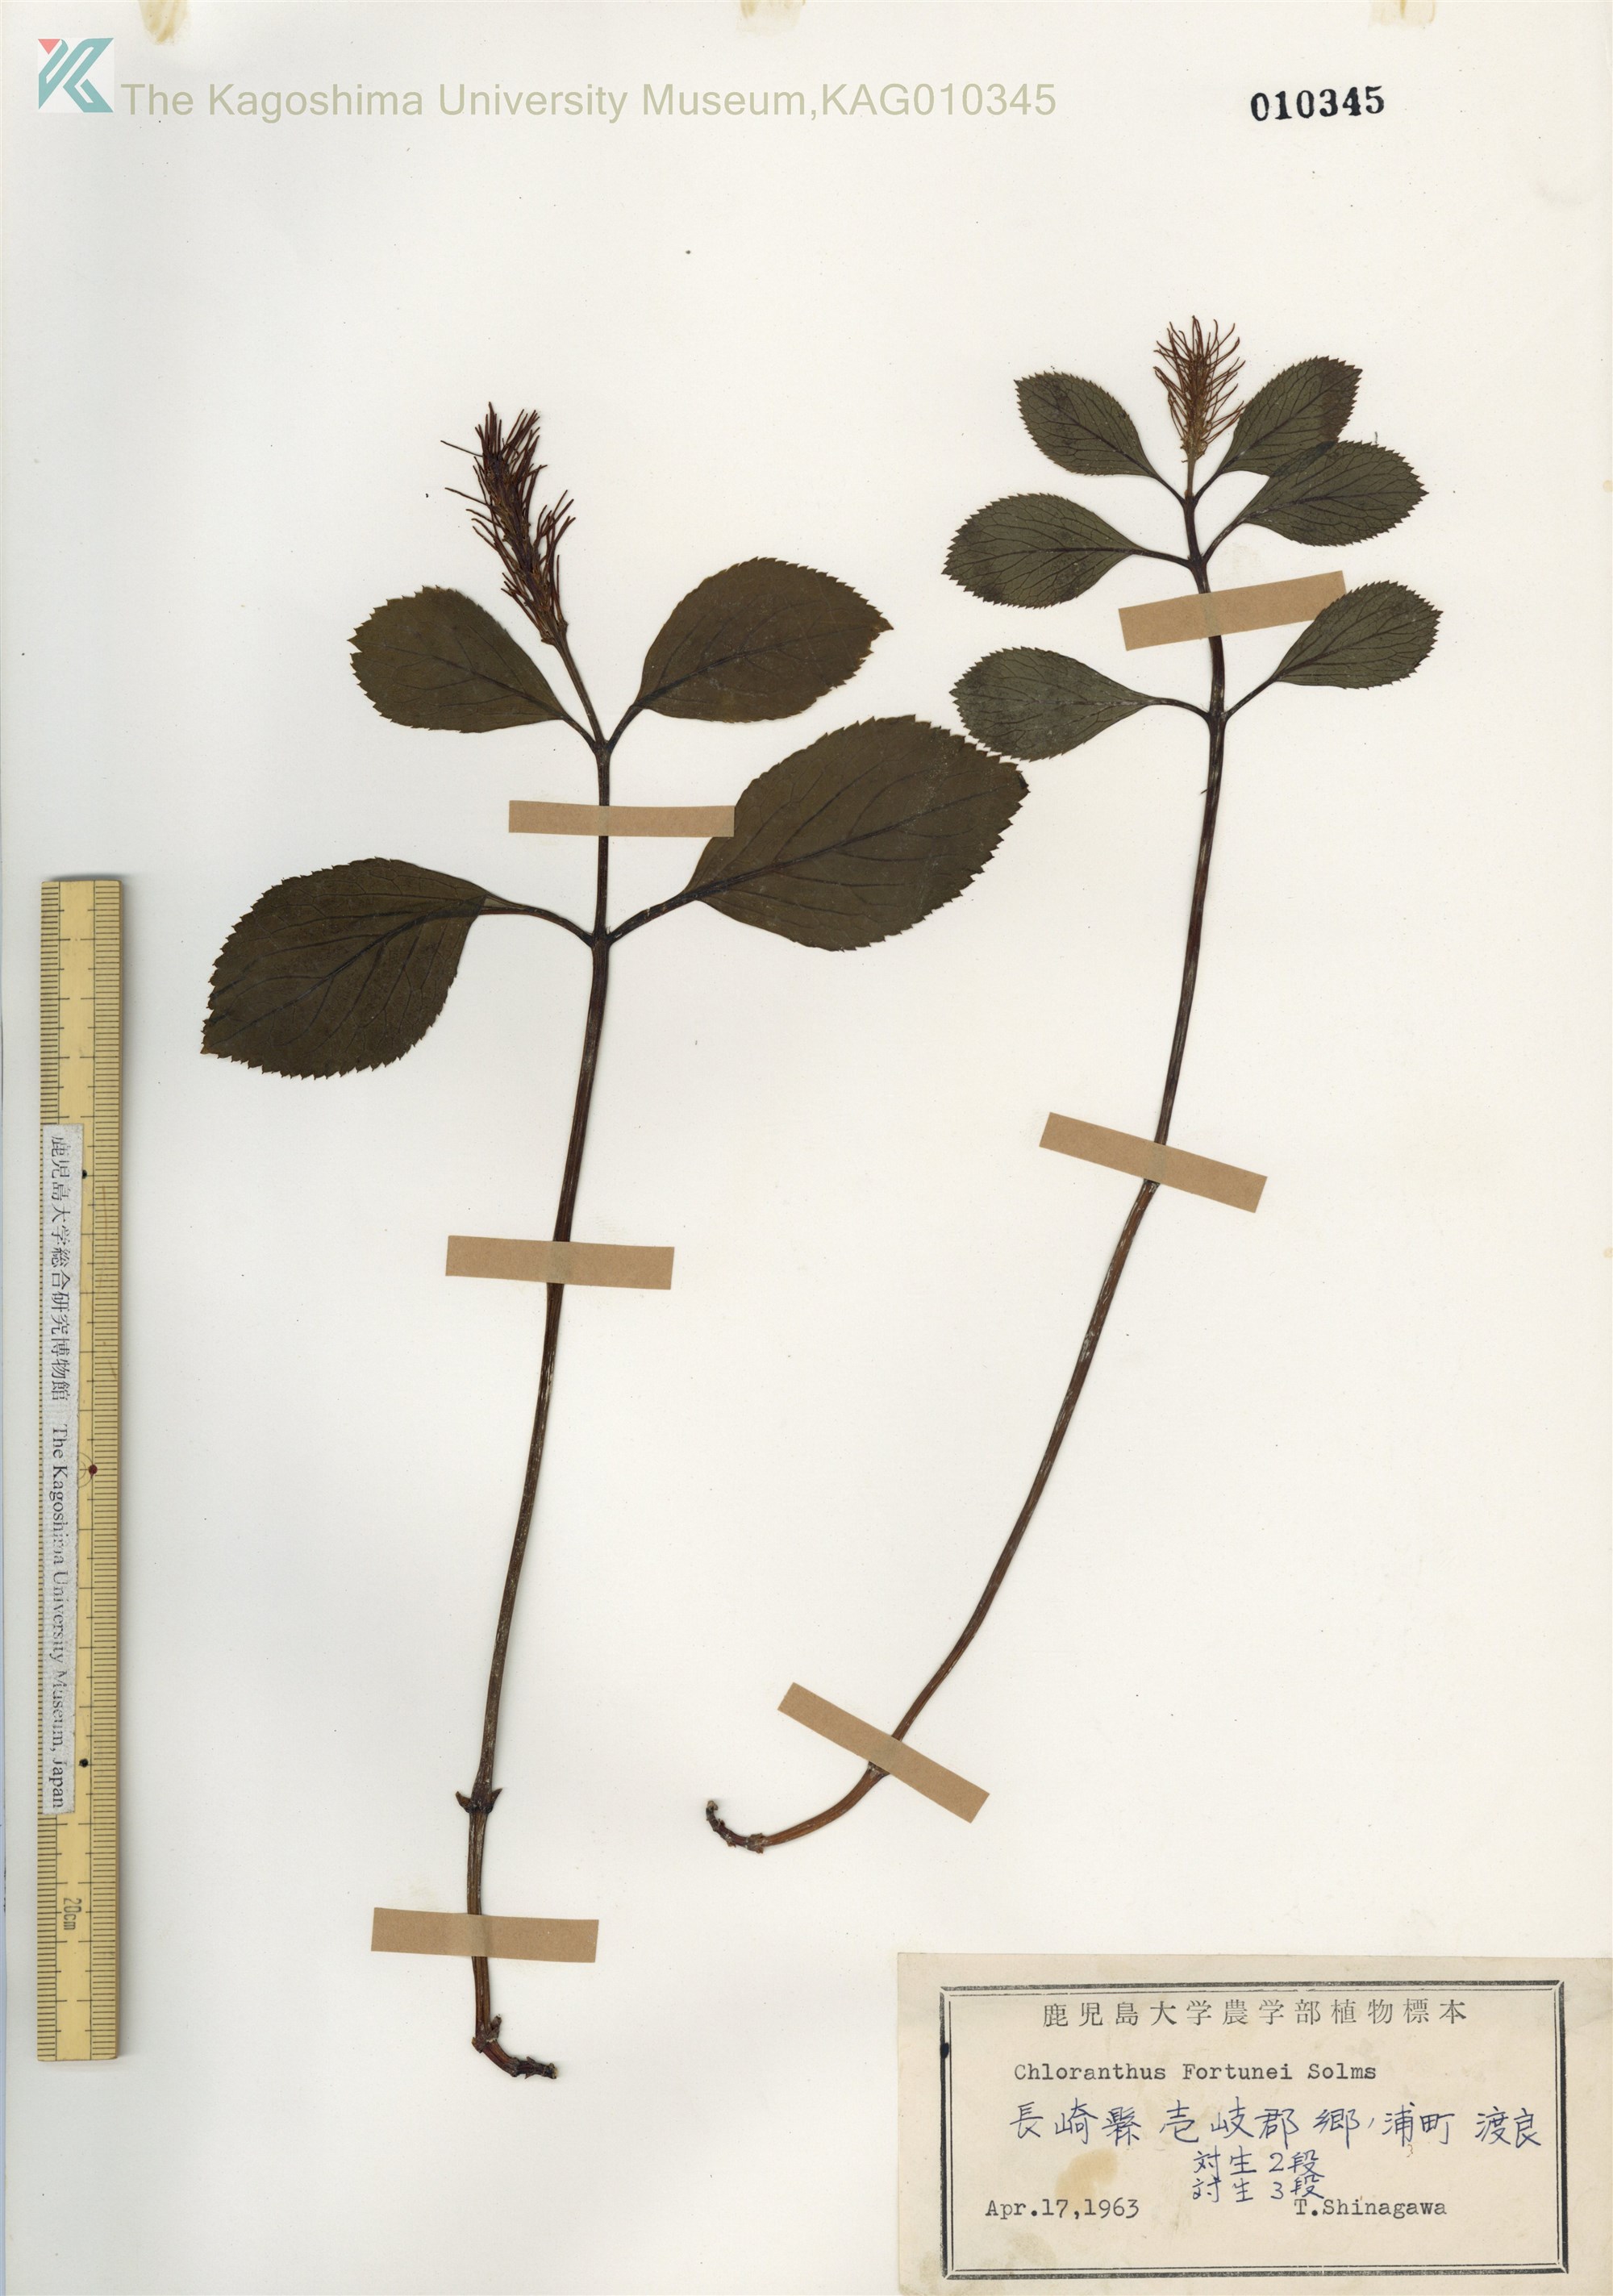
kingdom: Plantae
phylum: Tracheophyta
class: Magnoliopsida
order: Chloranthales
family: Chloranthaceae
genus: Chloranthus
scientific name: Chloranthus fortunei
